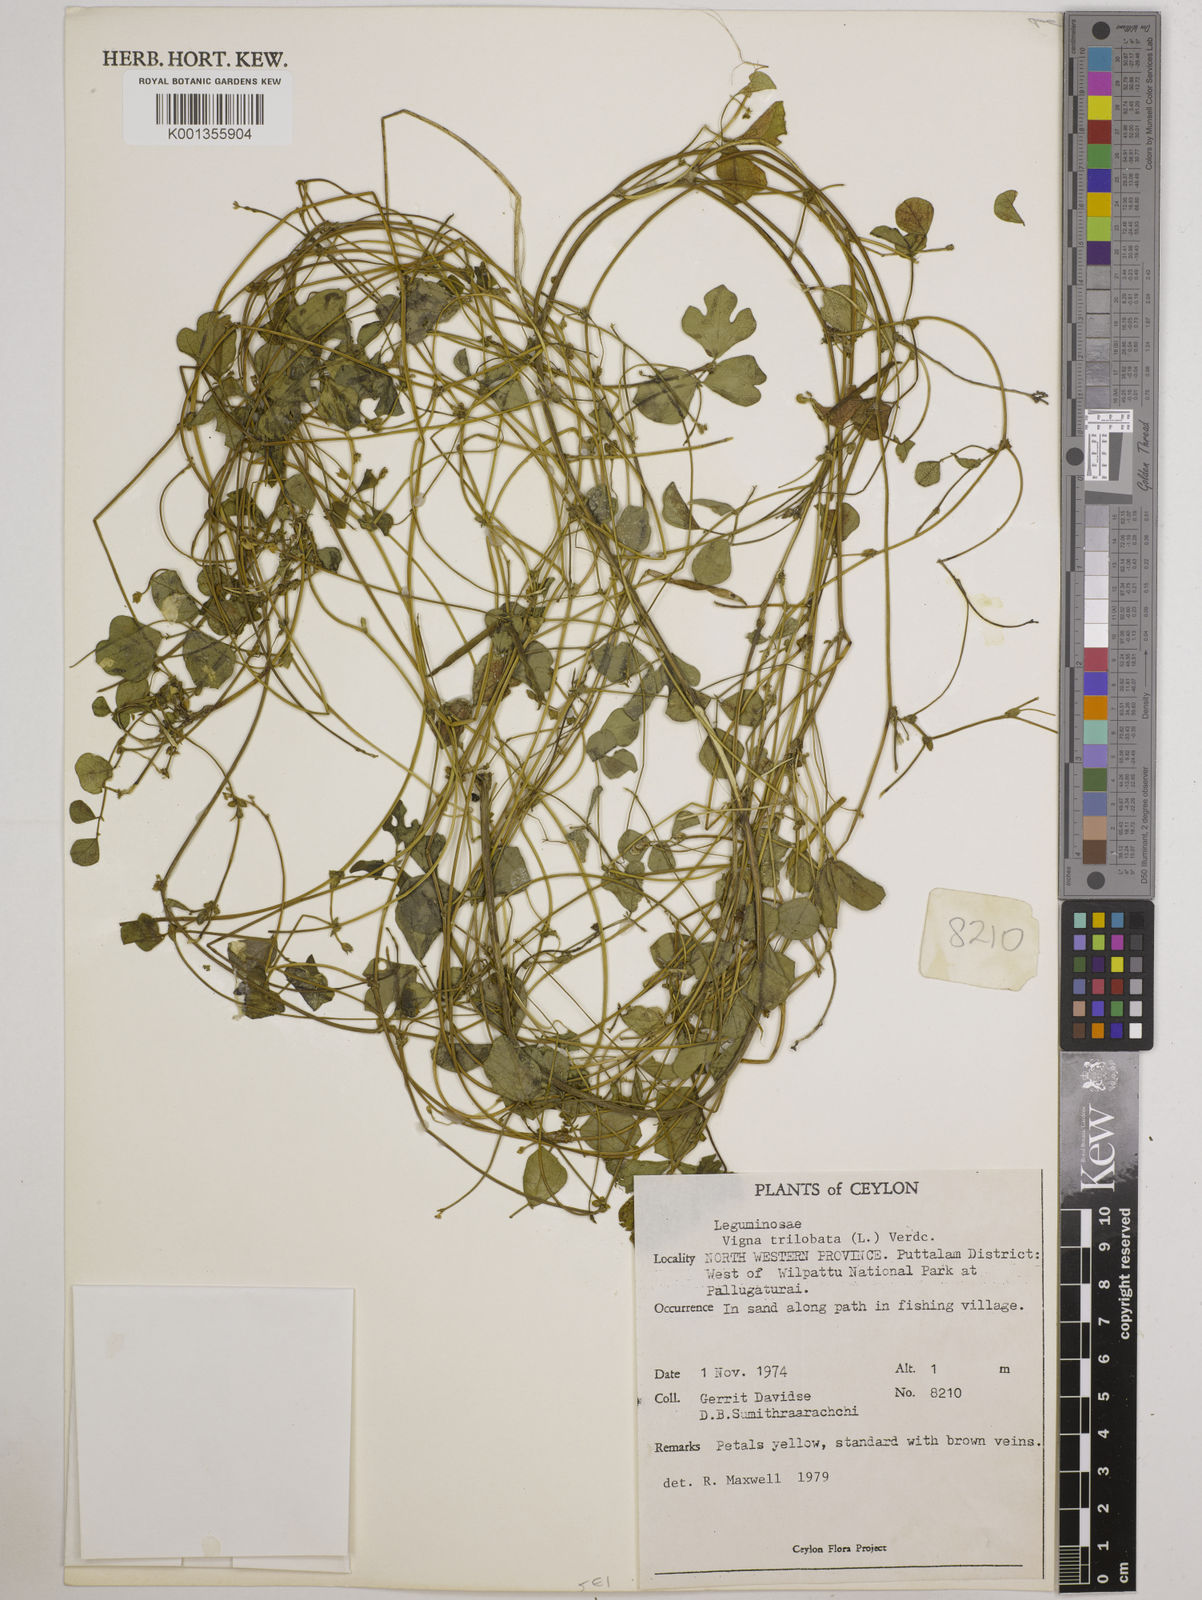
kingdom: Plantae
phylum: Tracheophyta
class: Magnoliopsida
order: Fabales
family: Fabaceae
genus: Vigna
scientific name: Vigna trilobata
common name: Jungli-bean
